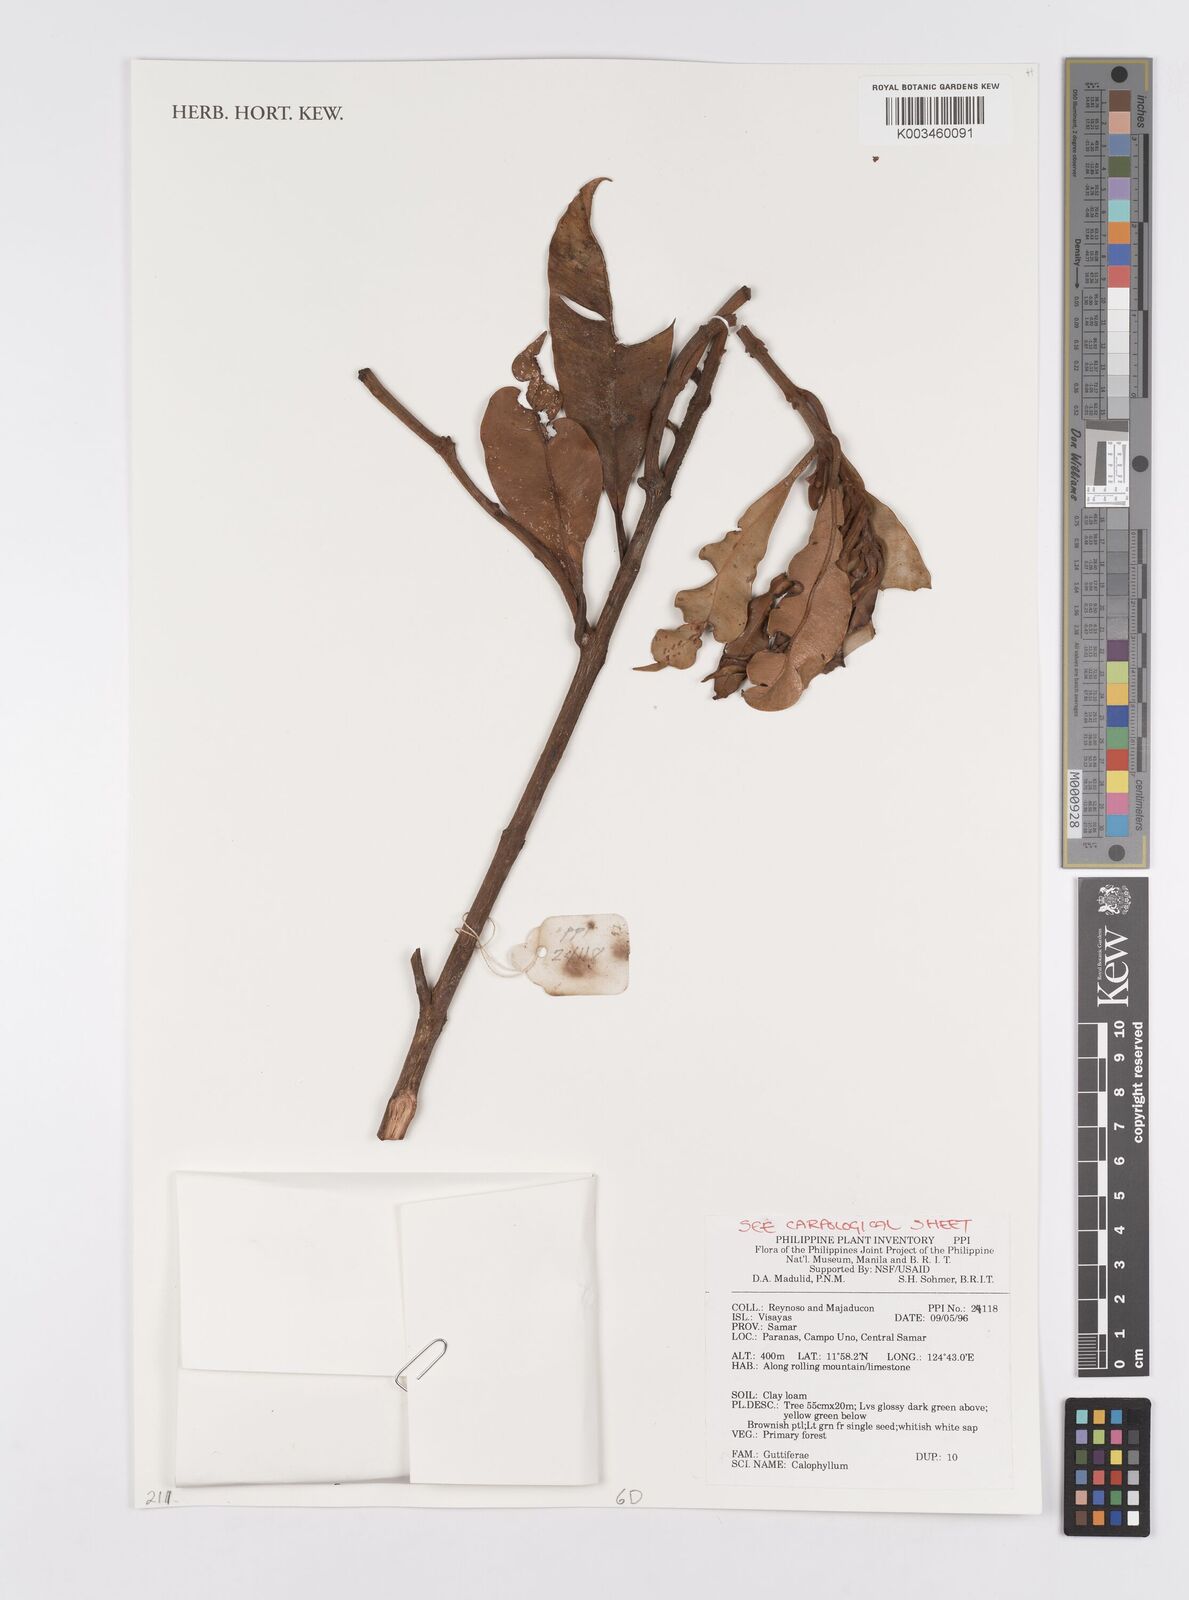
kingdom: Plantae
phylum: Tracheophyta
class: Magnoliopsida
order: Malpighiales
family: Calophyllaceae
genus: Calophyllum
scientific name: Calophyllum
